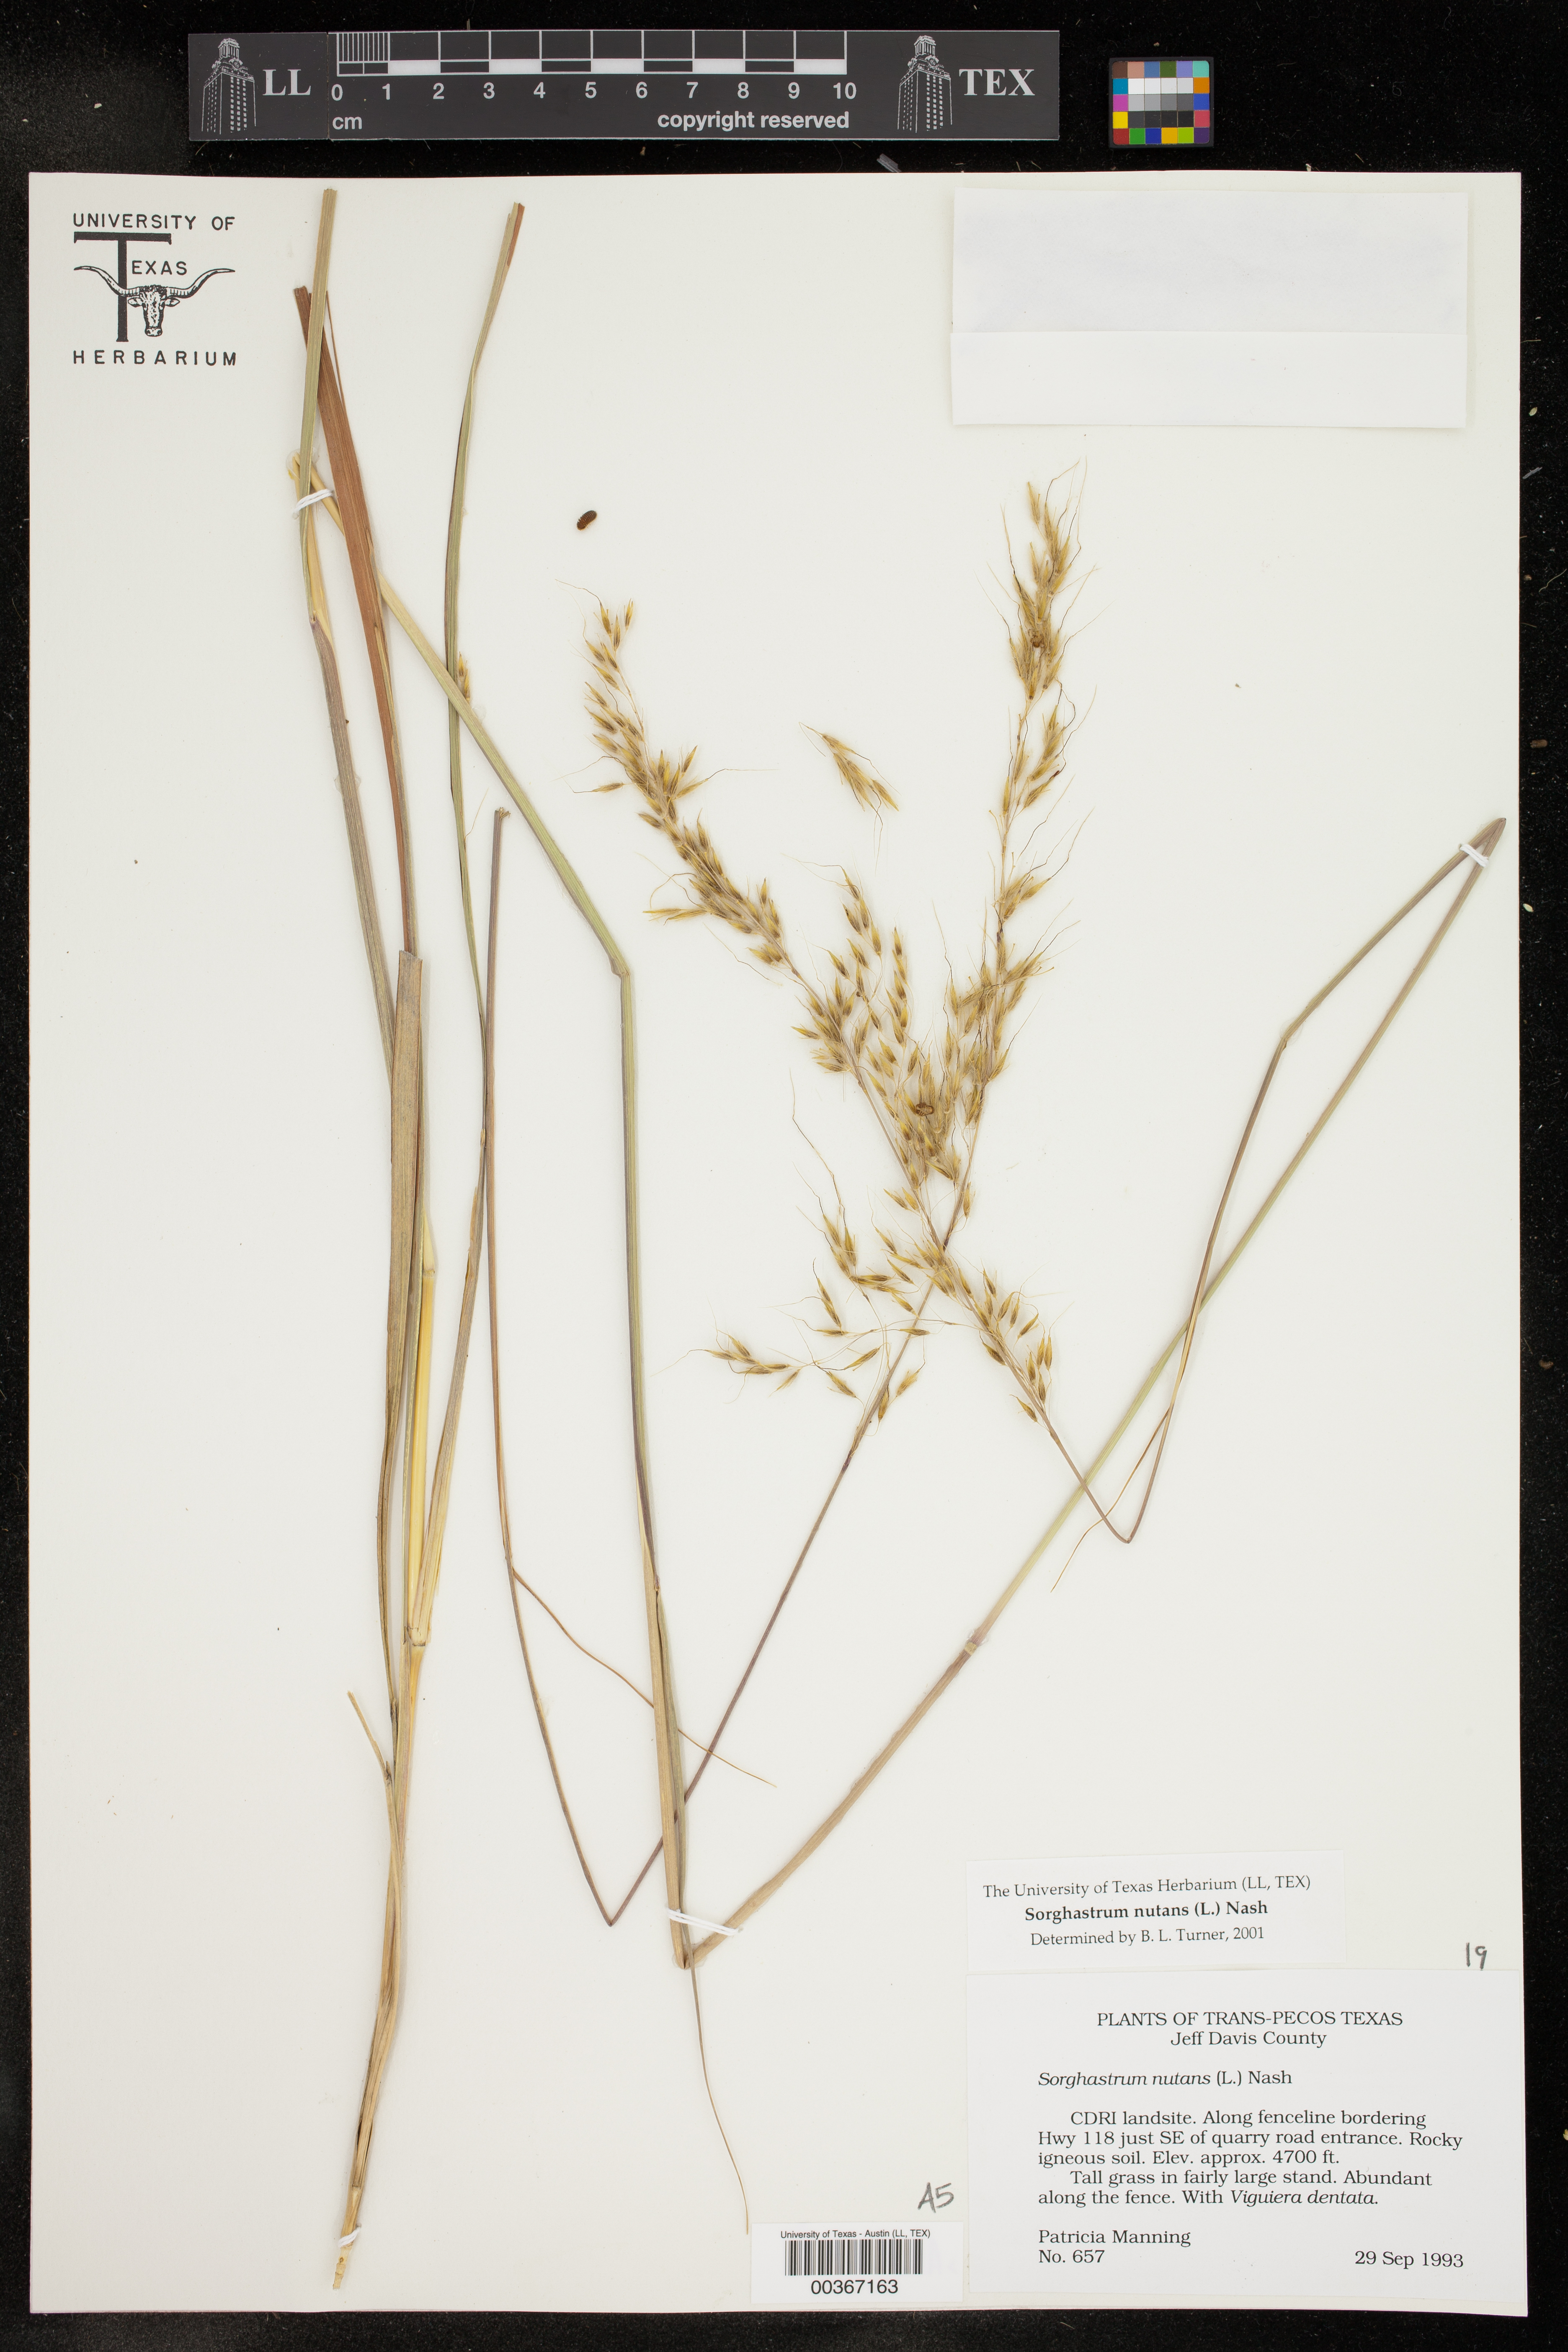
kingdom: Plantae
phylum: Tracheophyta
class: Liliopsida
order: Poales
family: Poaceae
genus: Sorghastrum
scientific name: Sorghastrum nutans
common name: Indian grass
